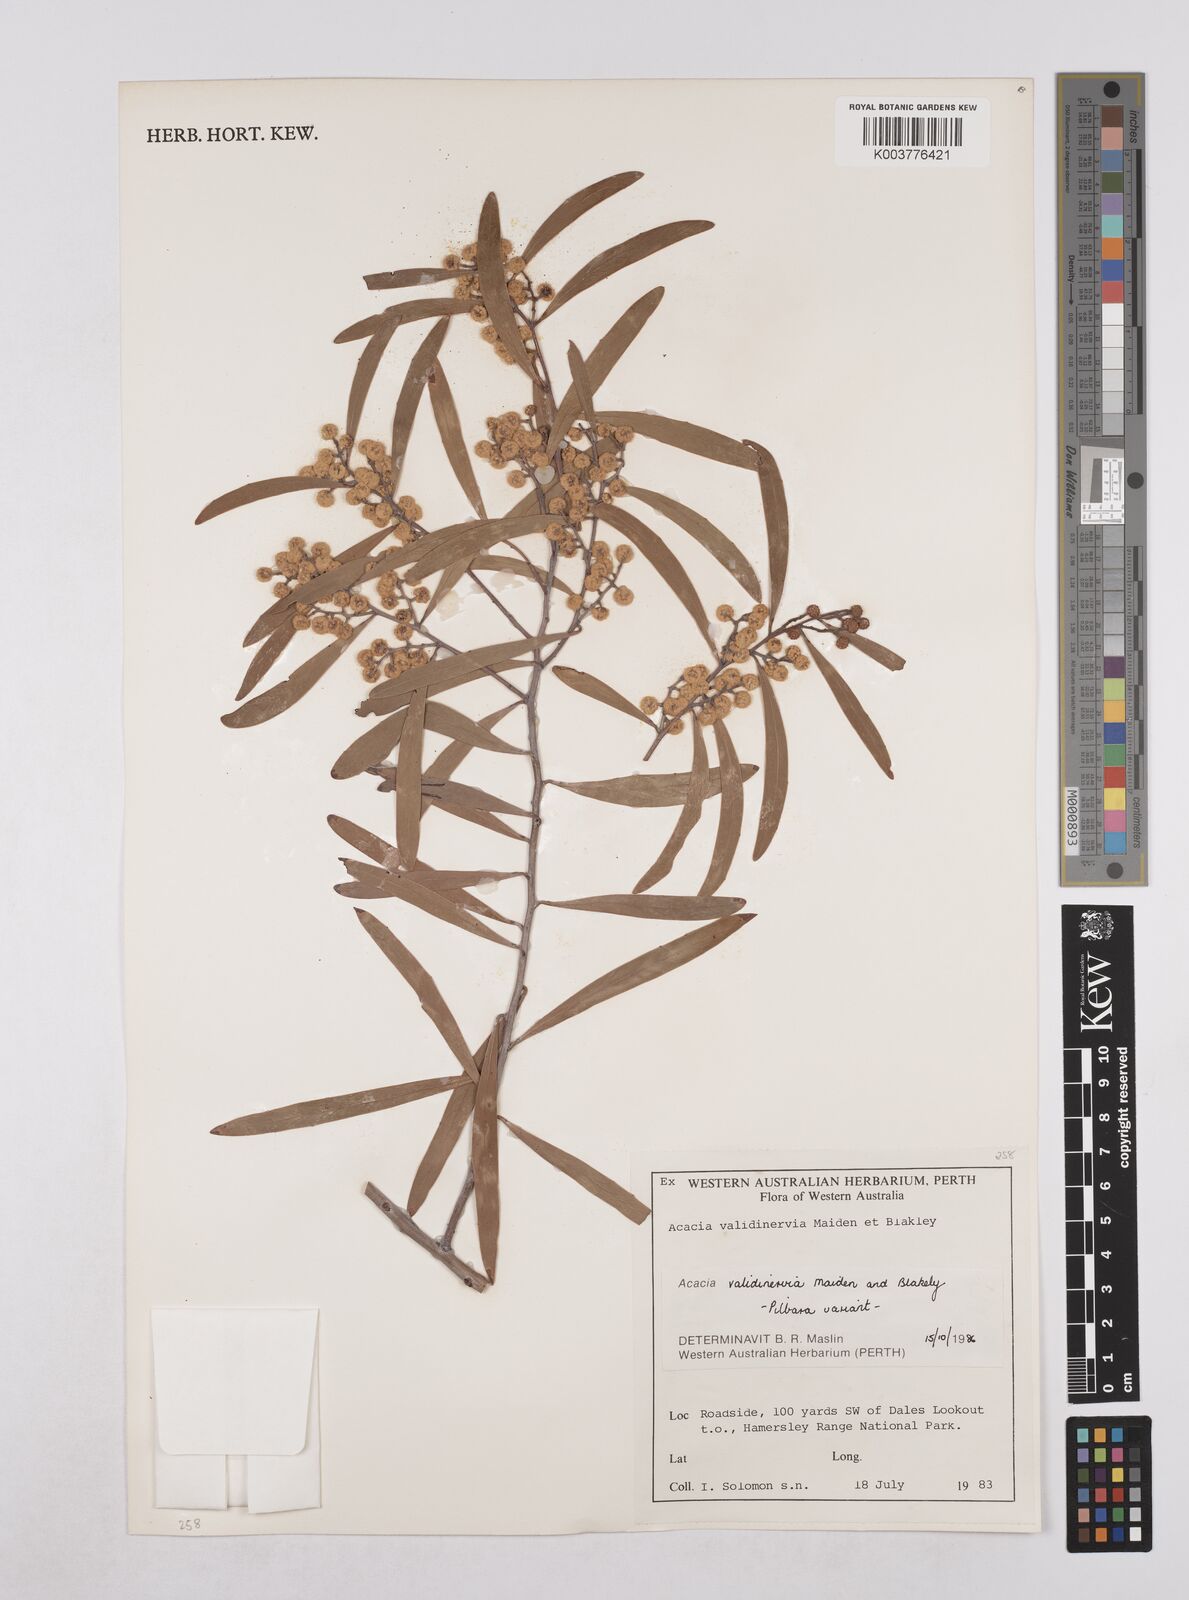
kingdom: Plantae
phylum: Tracheophyta
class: Magnoliopsida
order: Fabales
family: Fabaceae
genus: Acacia
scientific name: Acacia validinervia
